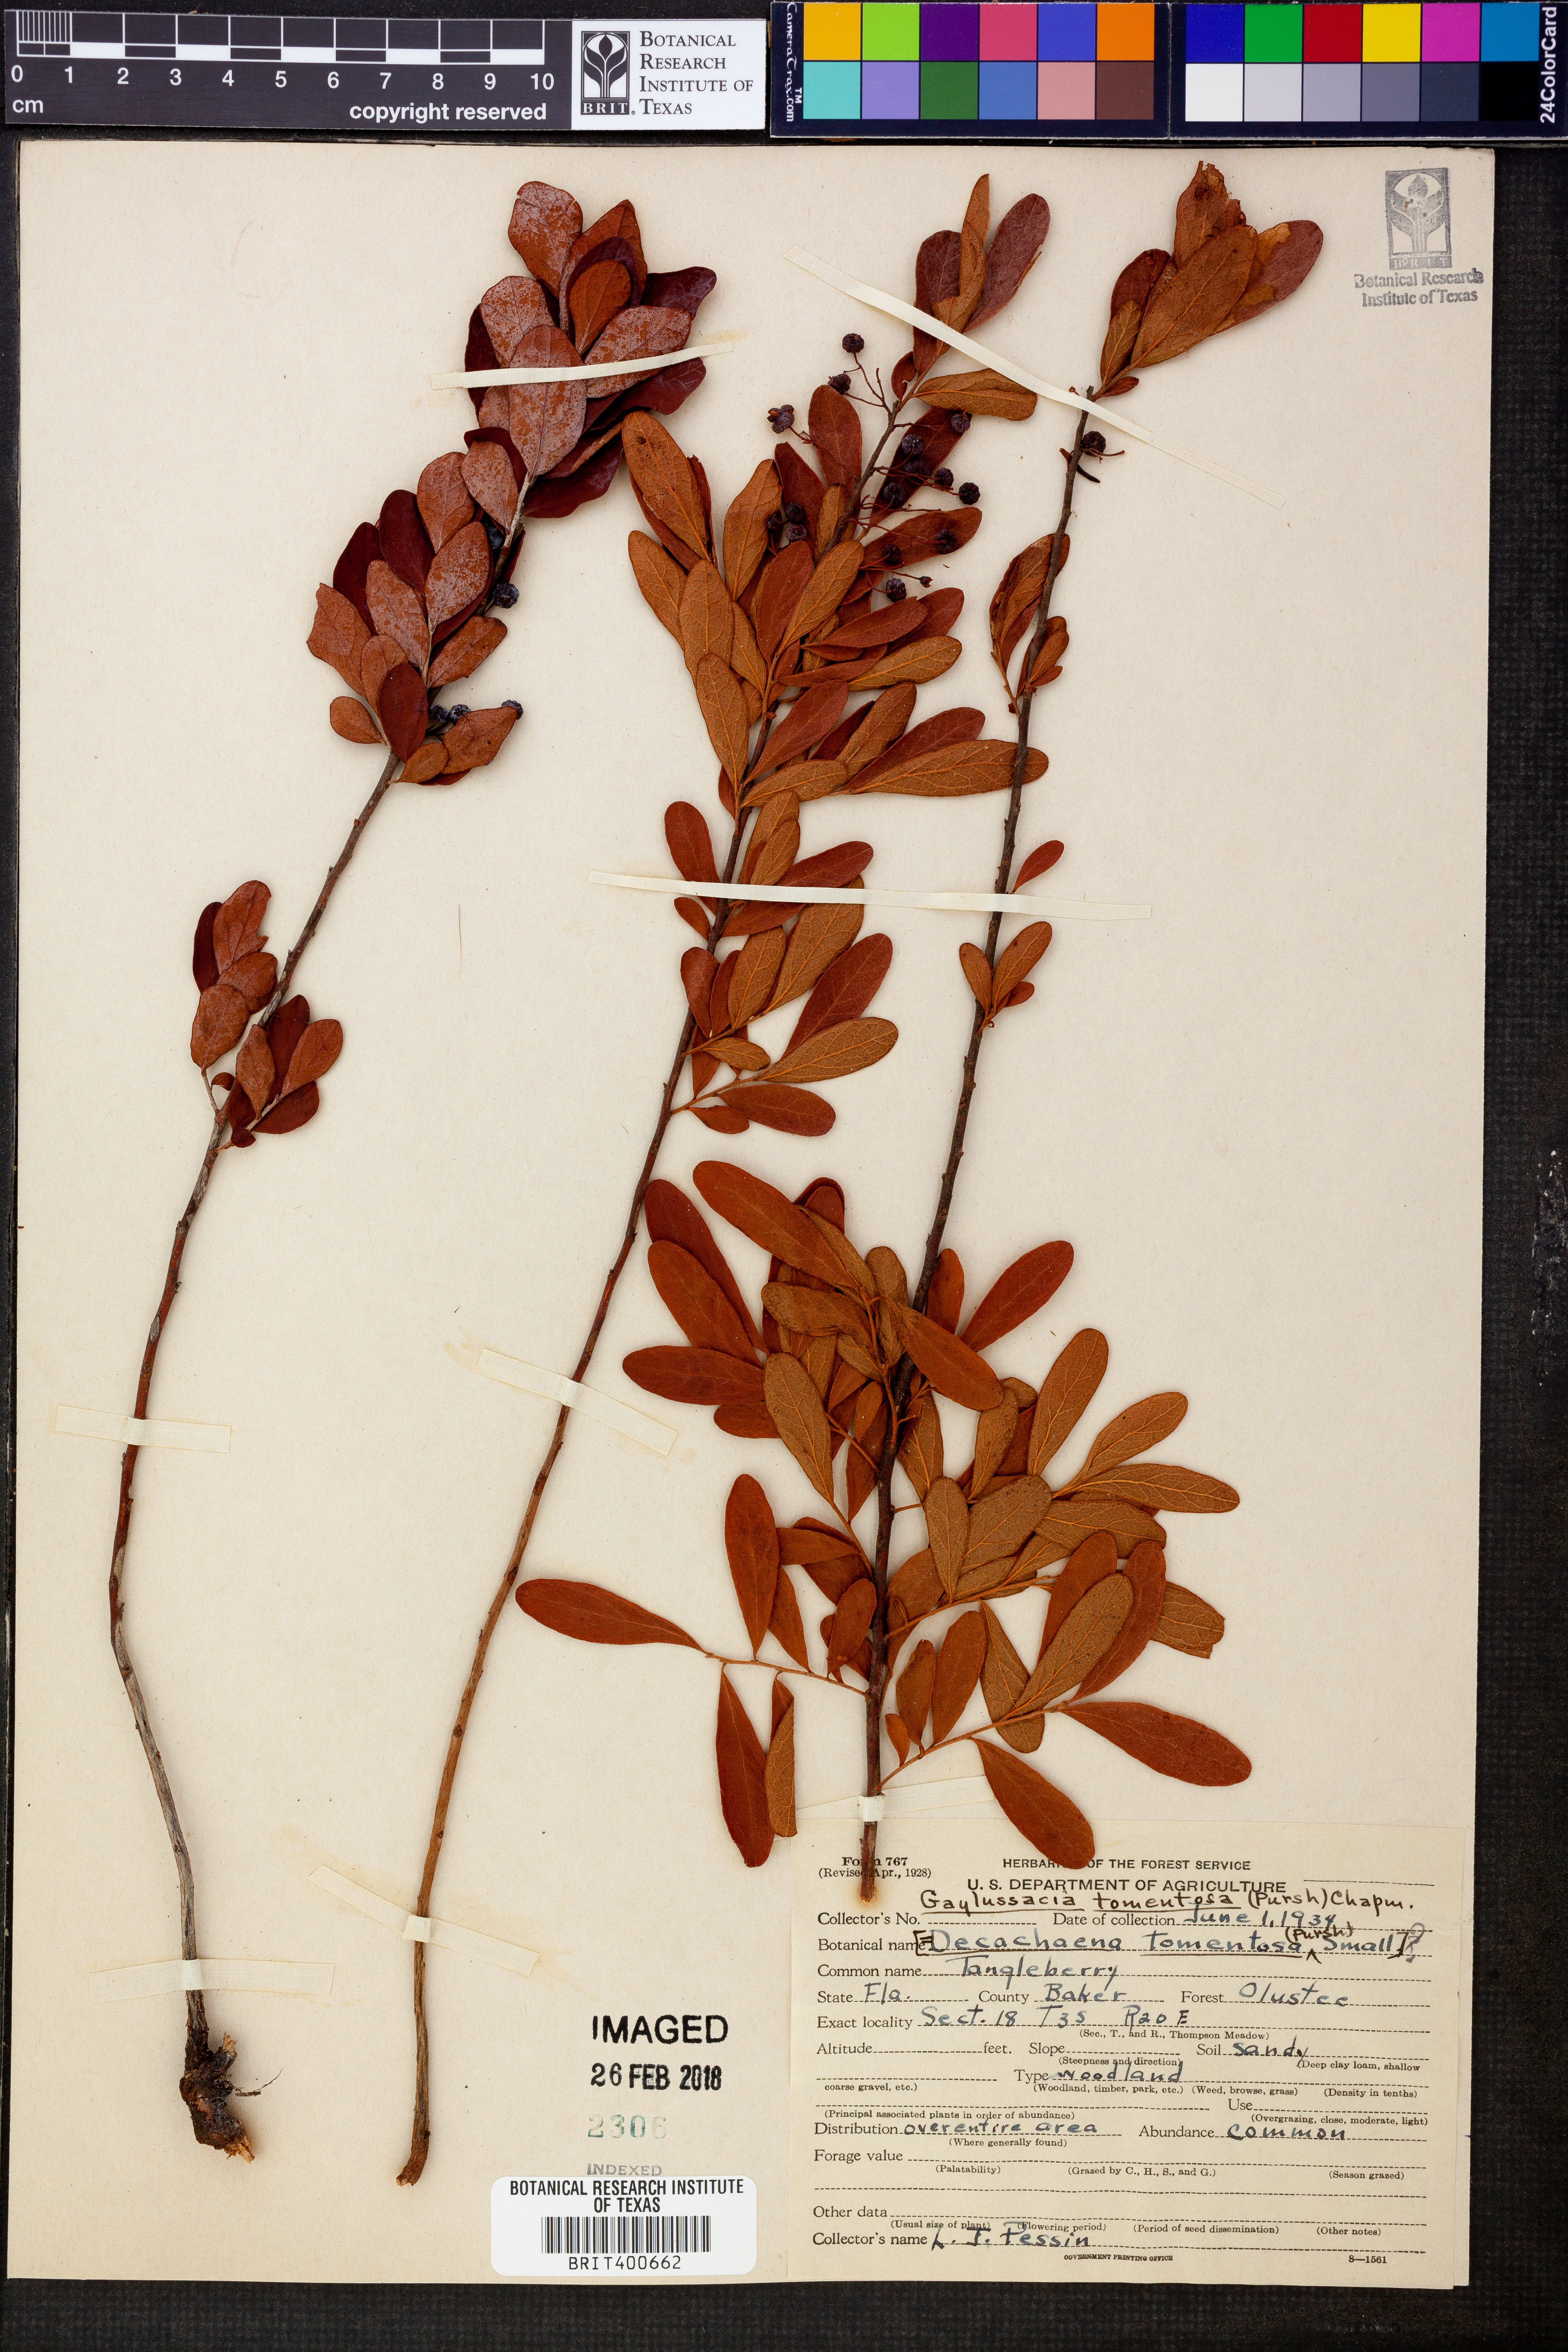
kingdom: Plantae
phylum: Tracheophyta
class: Magnoliopsida
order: Ericales
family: Ericaceae
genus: Gaylussacia
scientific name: Gaylussacia nana
